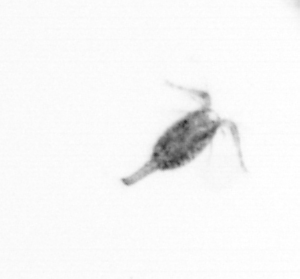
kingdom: Animalia
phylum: Arthropoda
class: Copepoda
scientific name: Copepoda
